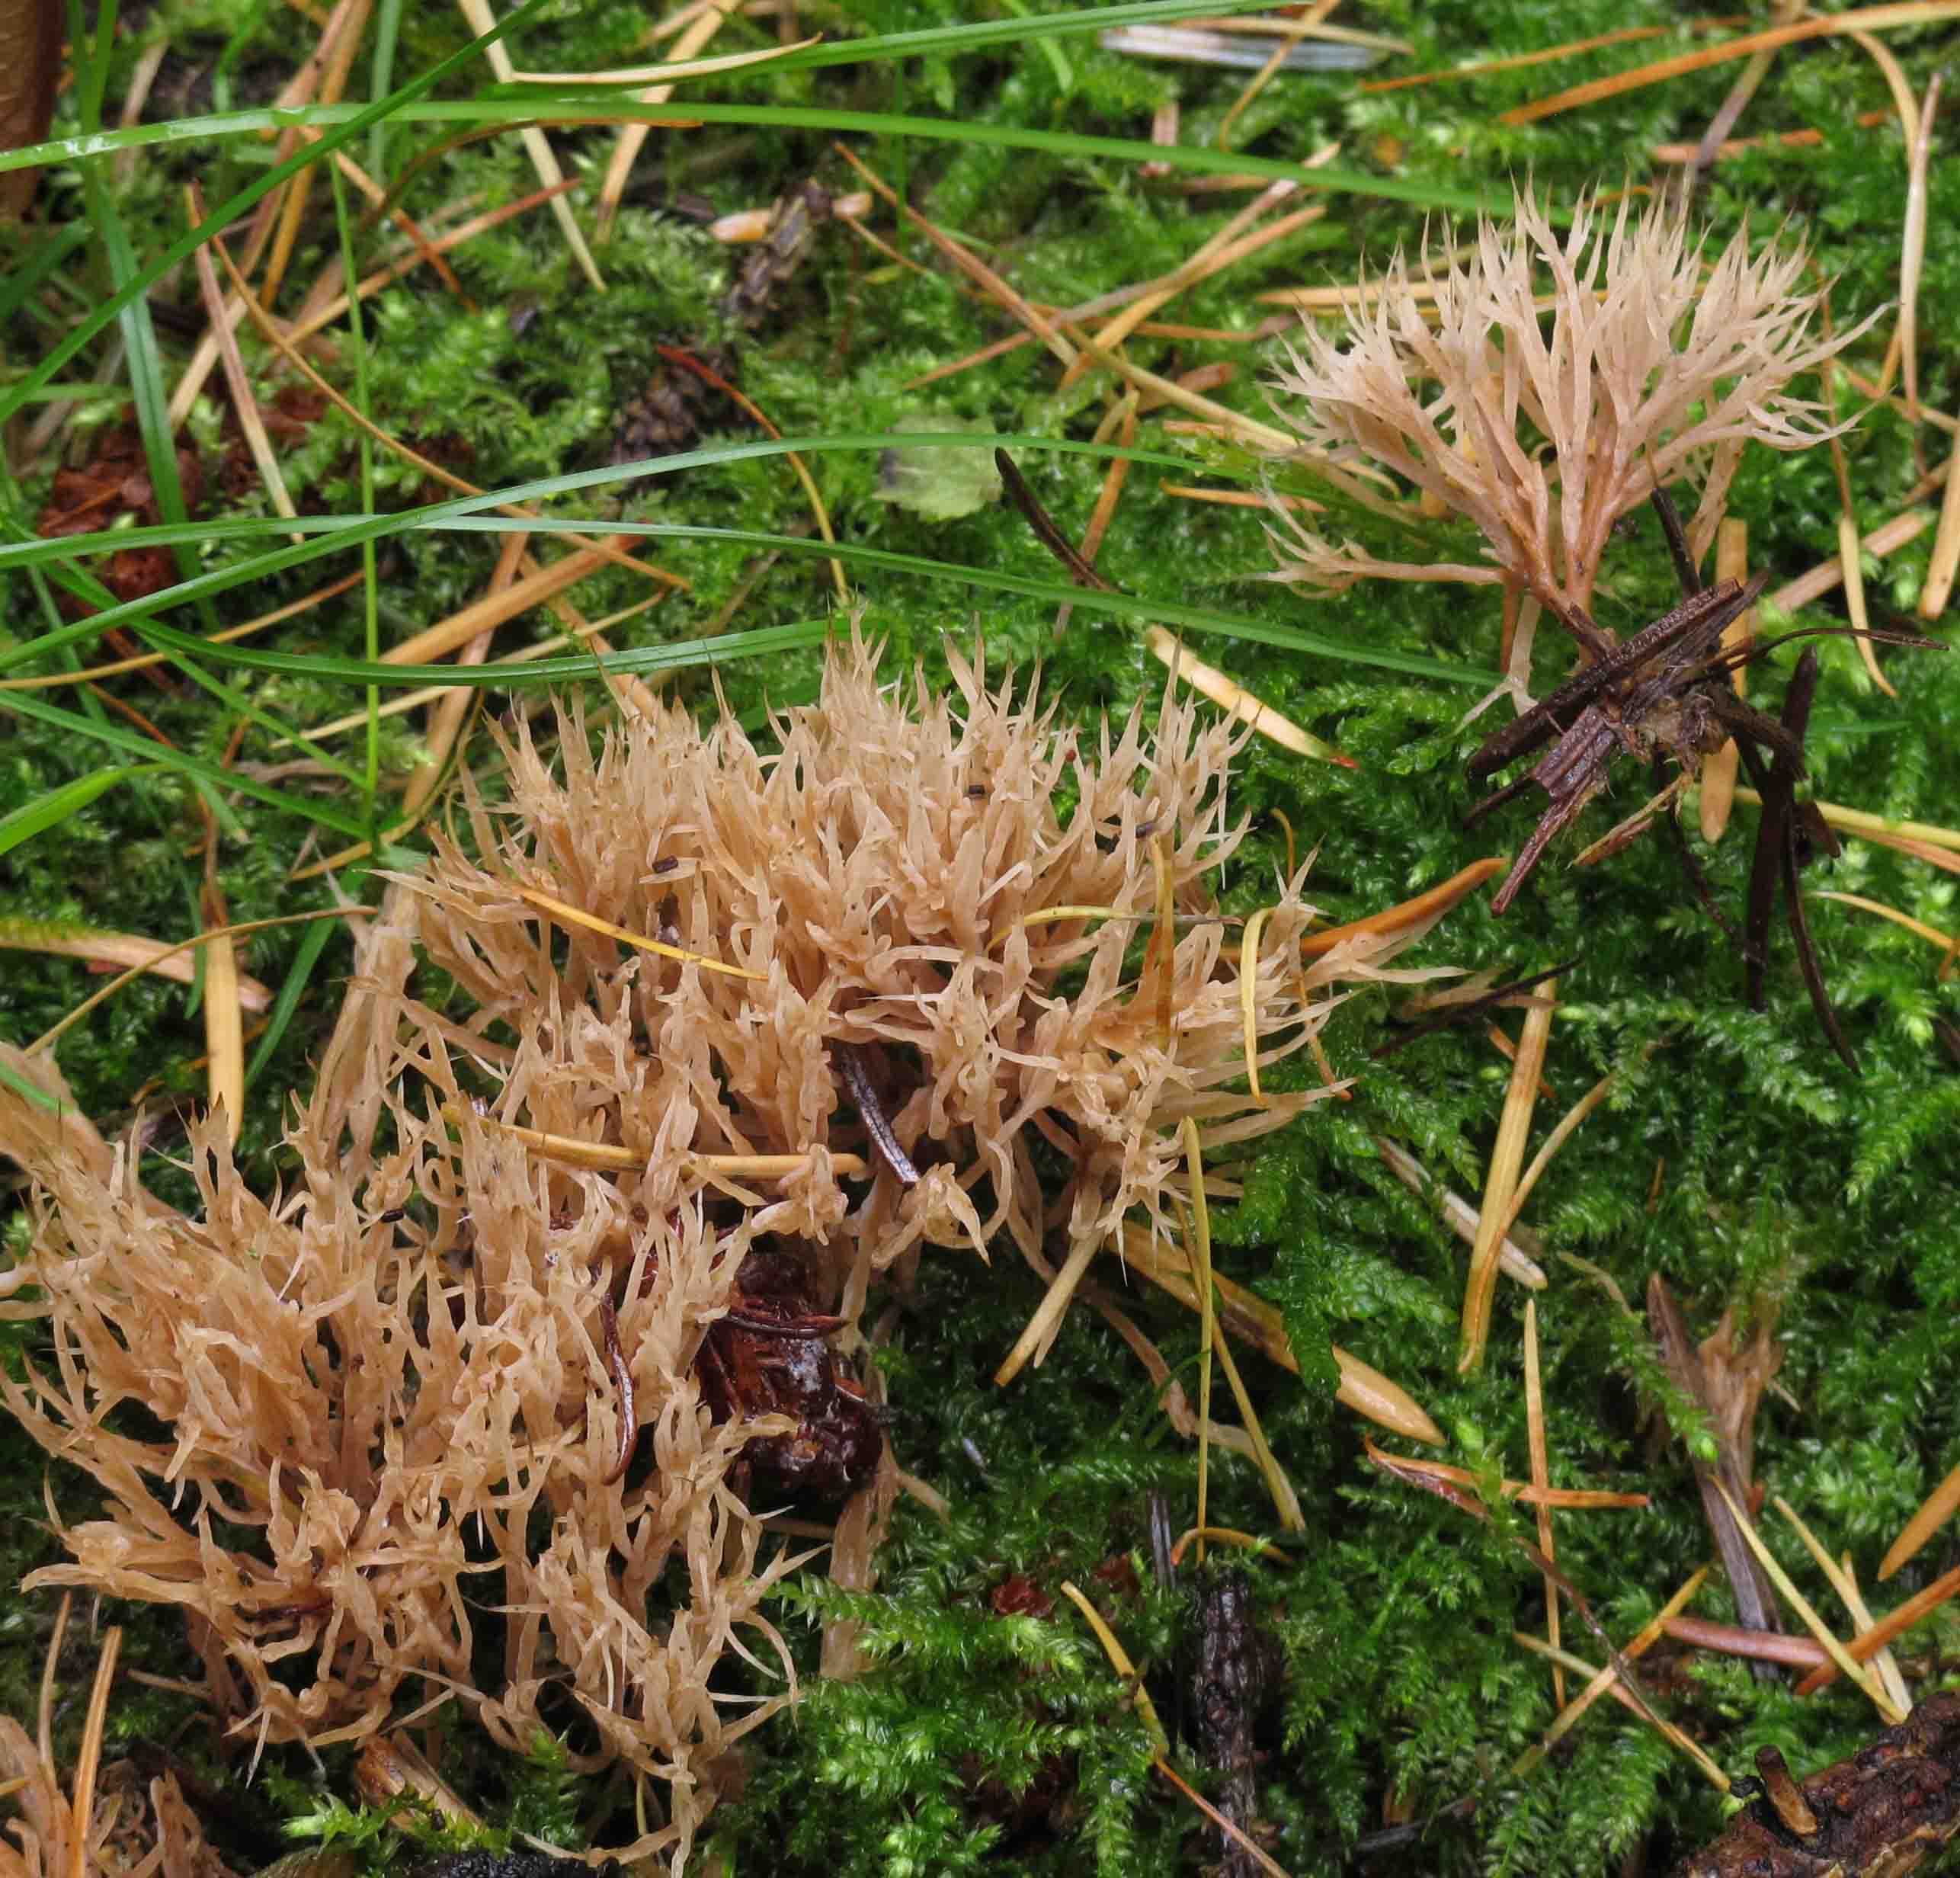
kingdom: Fungi
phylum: Basidiomycota
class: Agaricomycetes
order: Agaricales
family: Pterulaceae
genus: Pterula
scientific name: Pterula multifida
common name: busket fjerkølle
